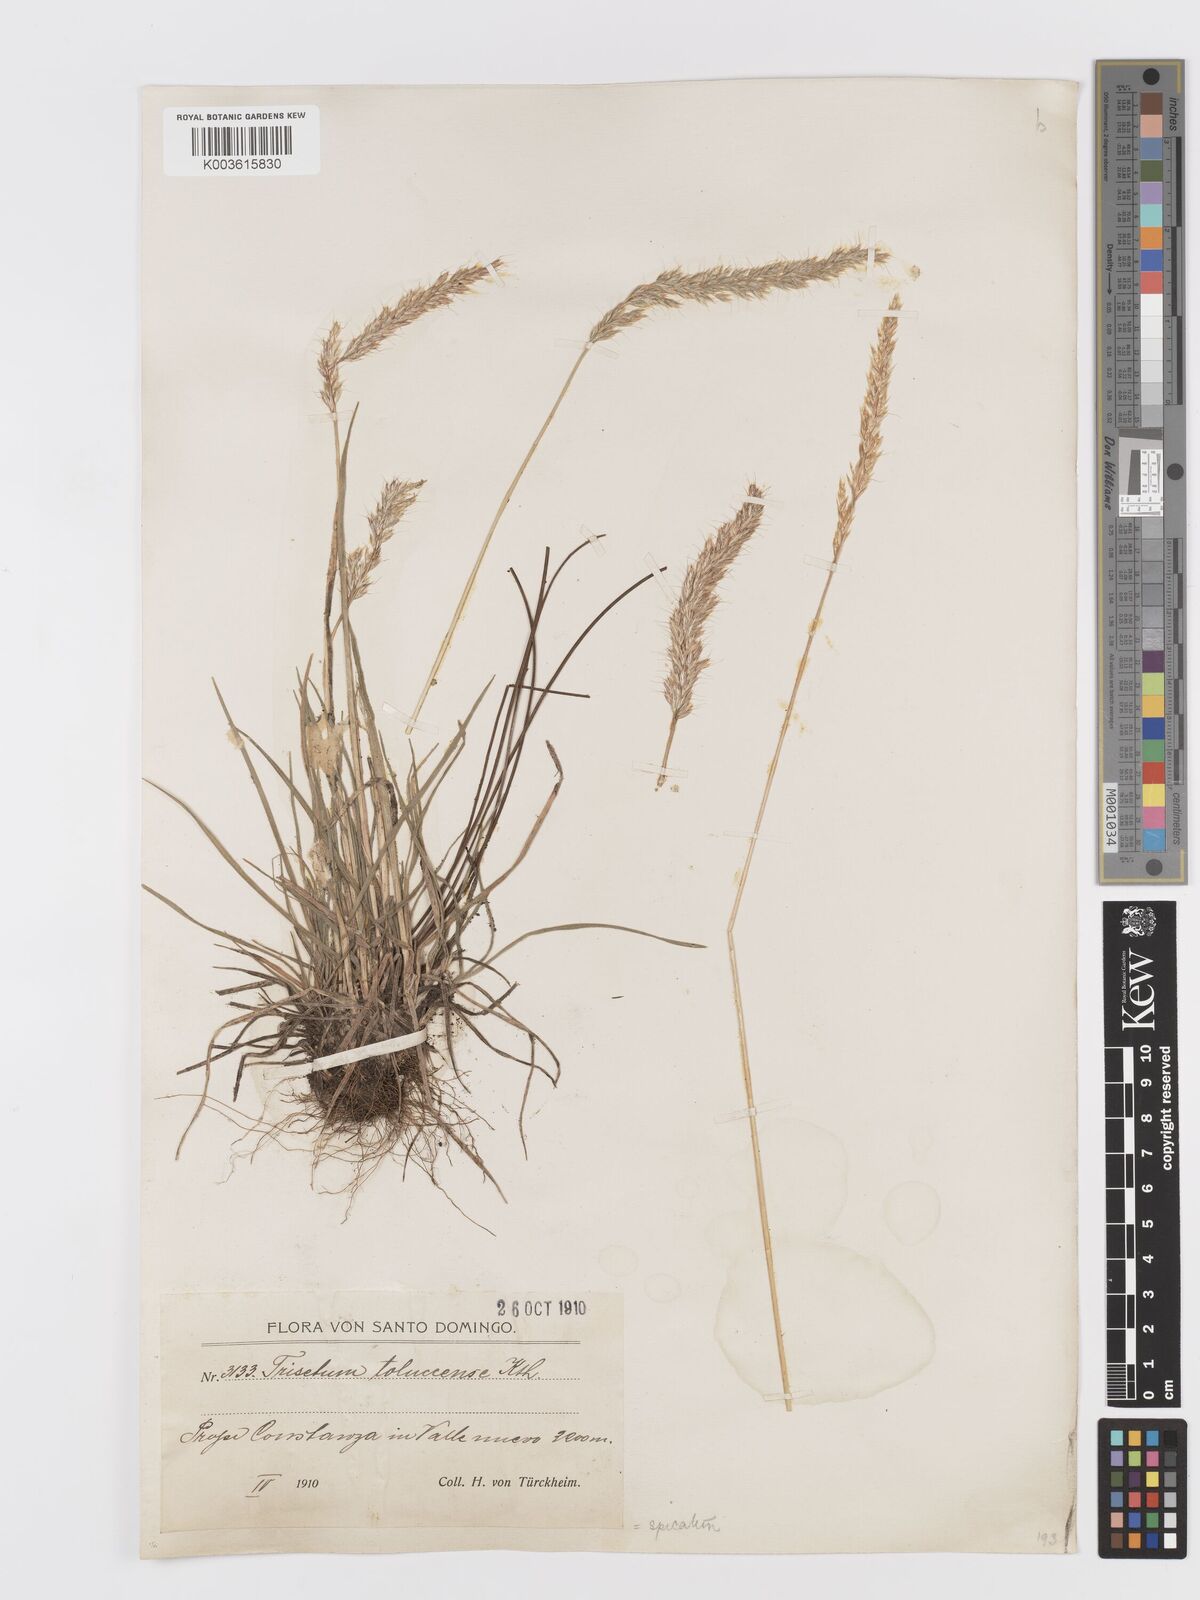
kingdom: Plantae
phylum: Tracheophyta
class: Liliopsida
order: Poales
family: Poaceae
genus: Koeleria
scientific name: Koeleria spicata
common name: Mountain trisetum
